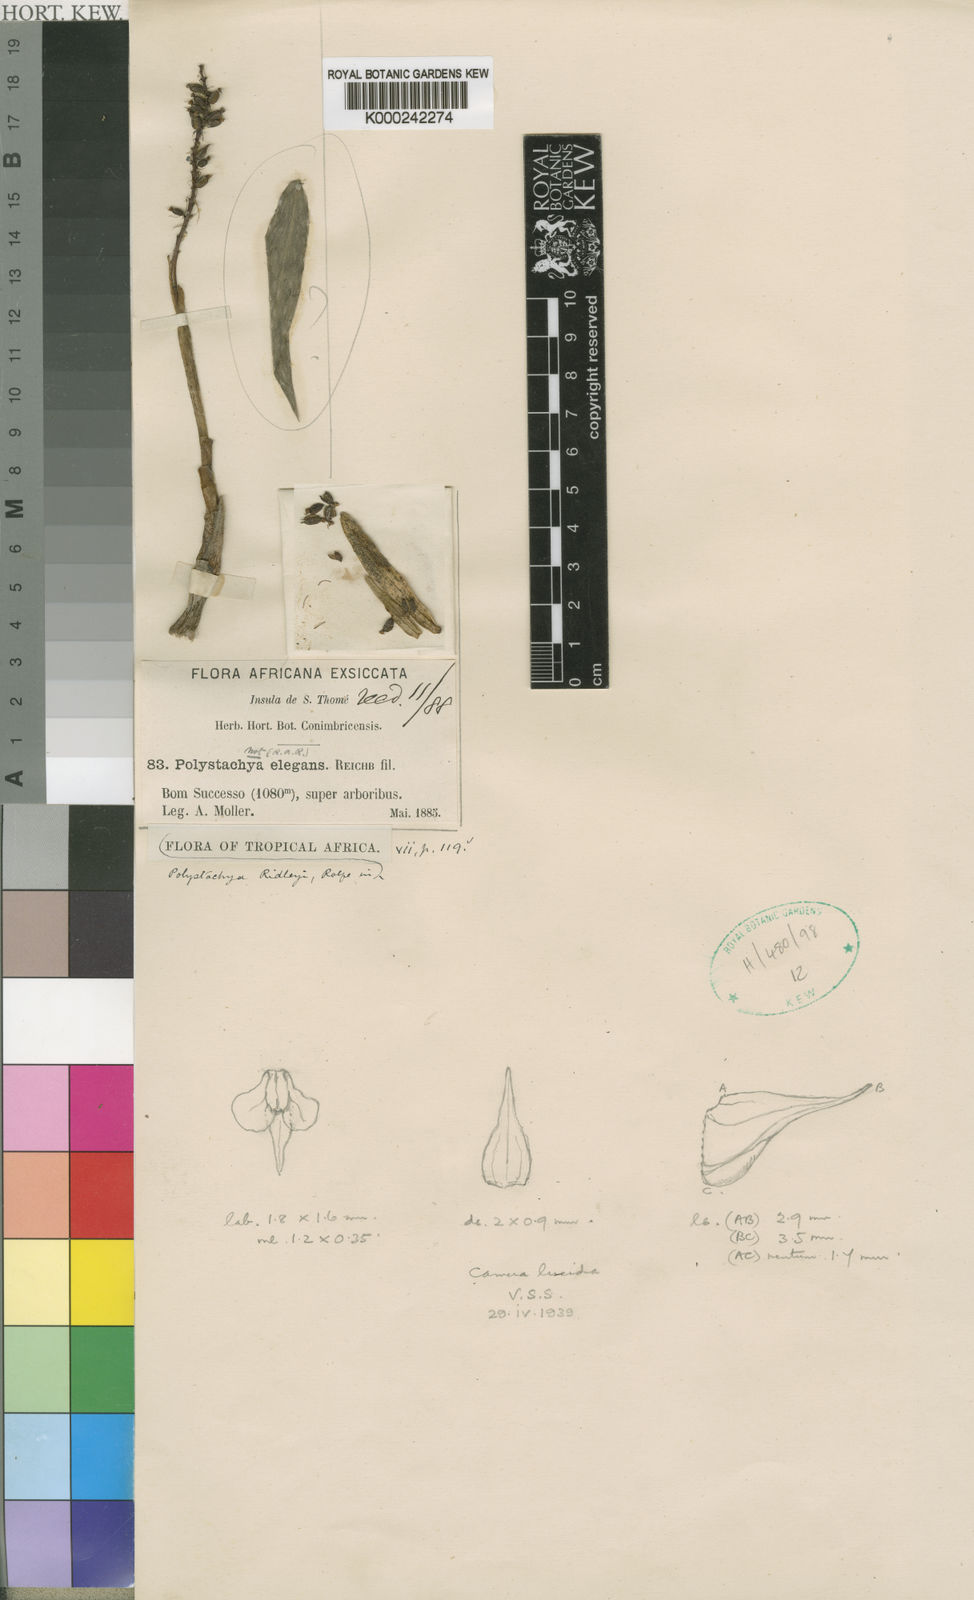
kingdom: Plantae
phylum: Tracheophyta
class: Liliopsida
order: Asparagales
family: Orchidaceae
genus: Polystachya
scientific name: Polystachya adansoniae
